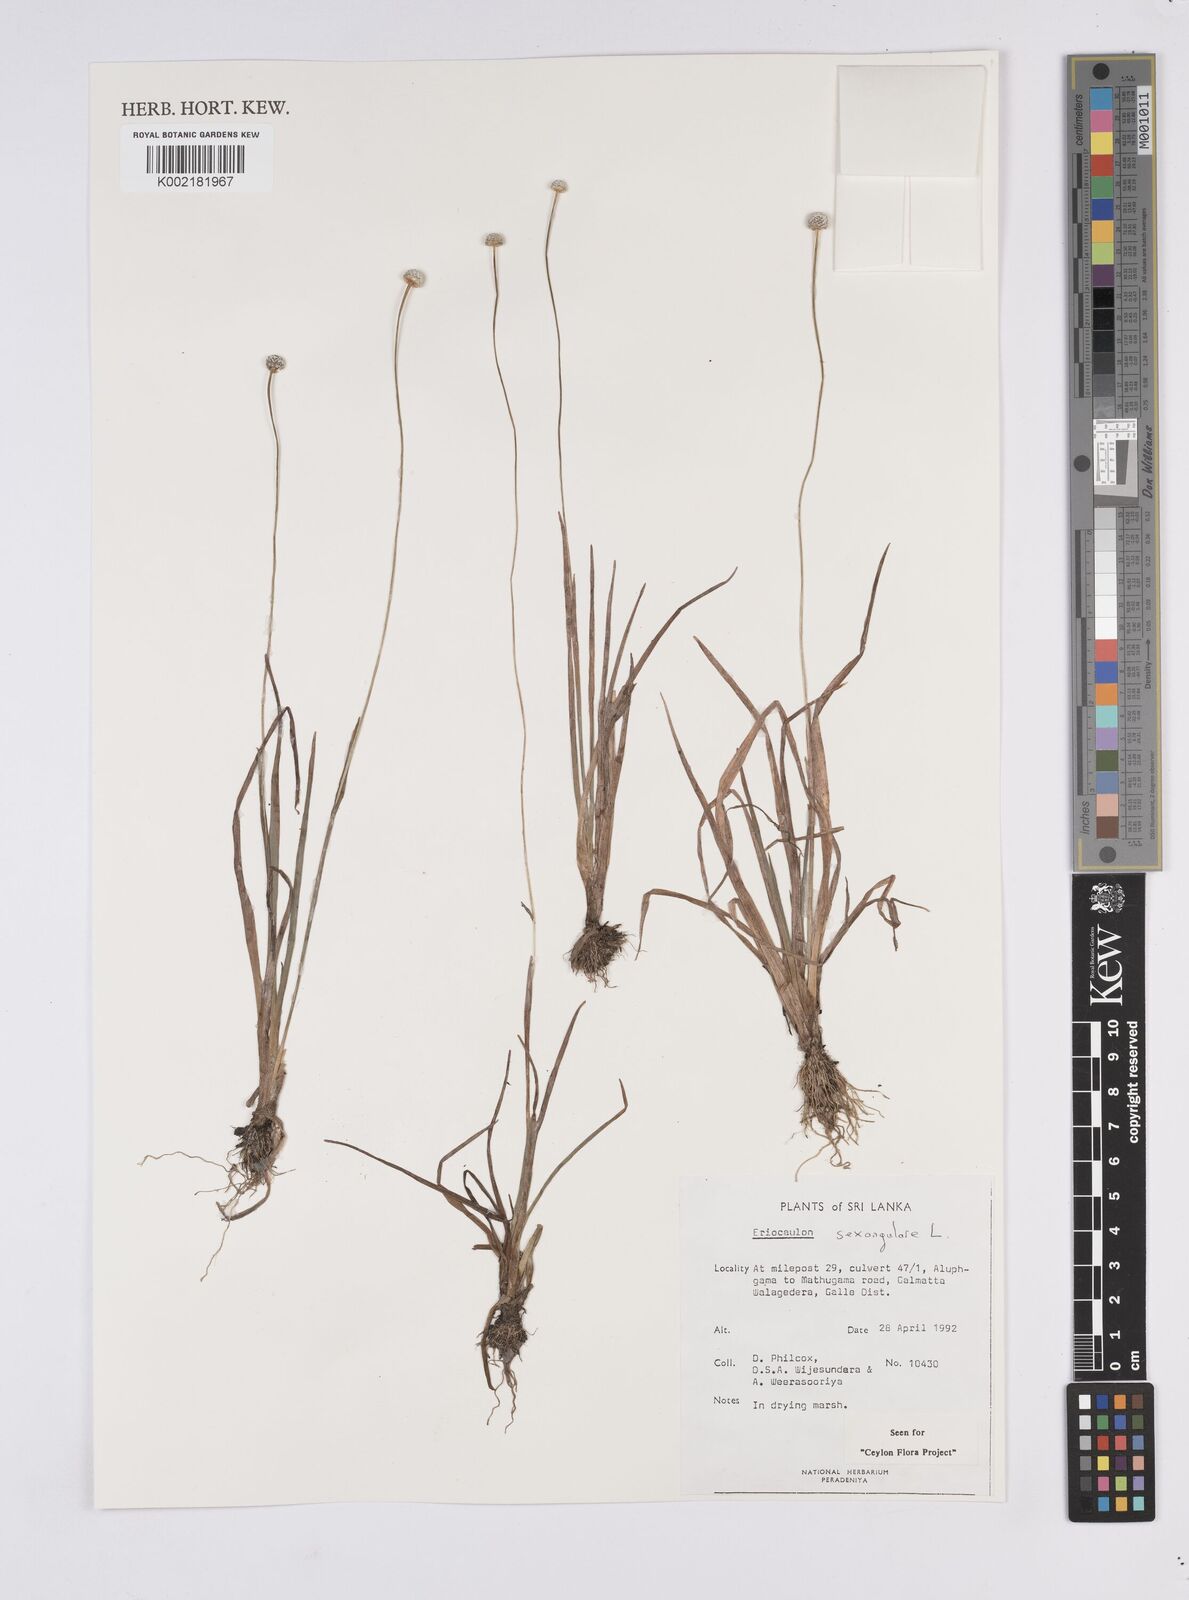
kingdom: Plantae
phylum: Tracheophyta
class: Liliopsida
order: Poales
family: Eriocaulaceae
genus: Eriocaulon
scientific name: Eriocaulon sexangulare
